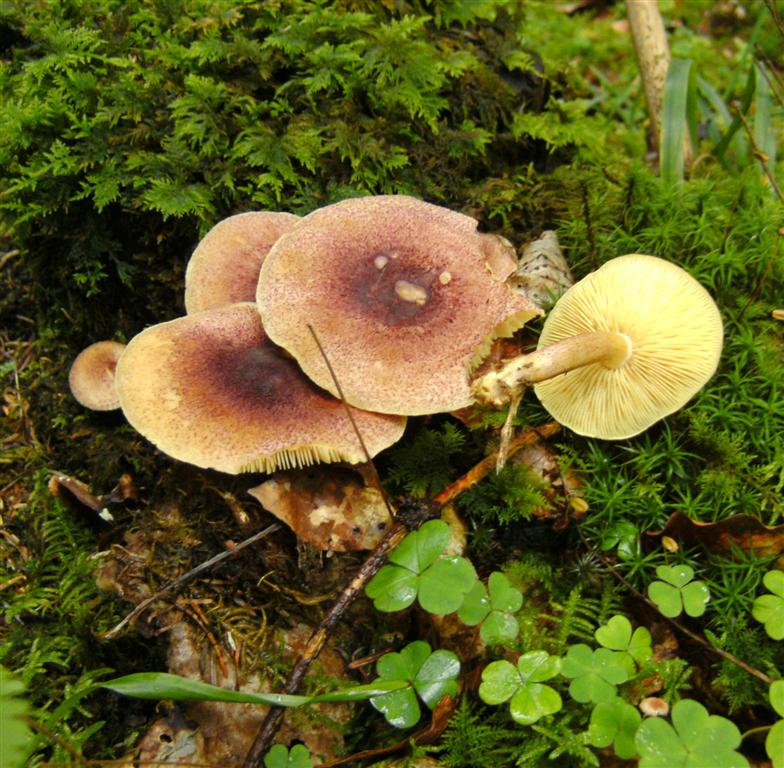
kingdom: Fungi
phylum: Basidiomycota
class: Agaricomycetes
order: Agaricales
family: Tricholomataceae
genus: Tricholomopsis
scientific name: Tricholomopsis rutilans
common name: purpur-væbnerhat
